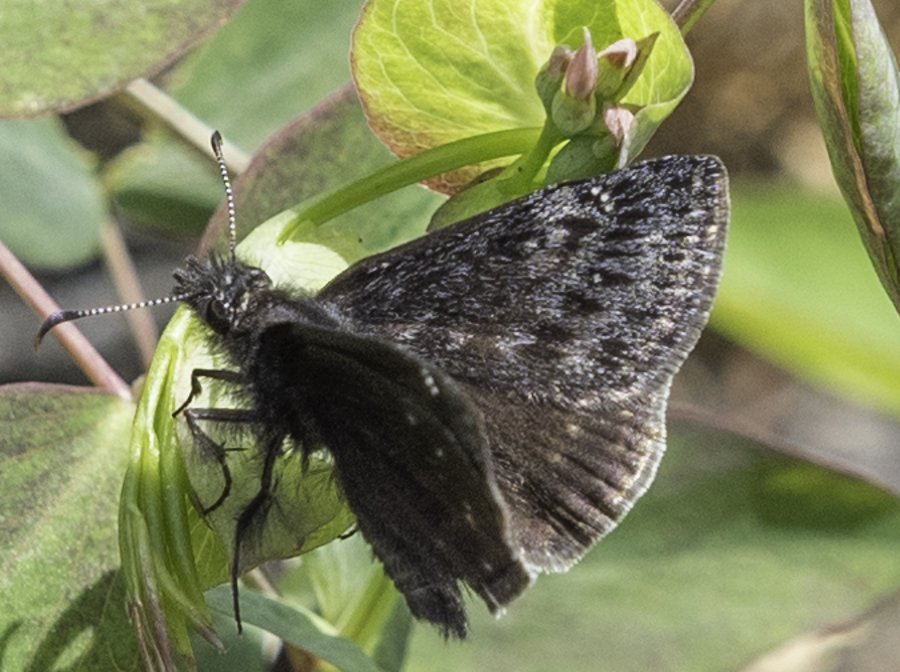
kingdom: Animalia
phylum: Arthropoda
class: Insecta
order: Lepidoptera
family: Hesperiidae
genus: Gesta
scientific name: Gesta
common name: Persius Duskywing
